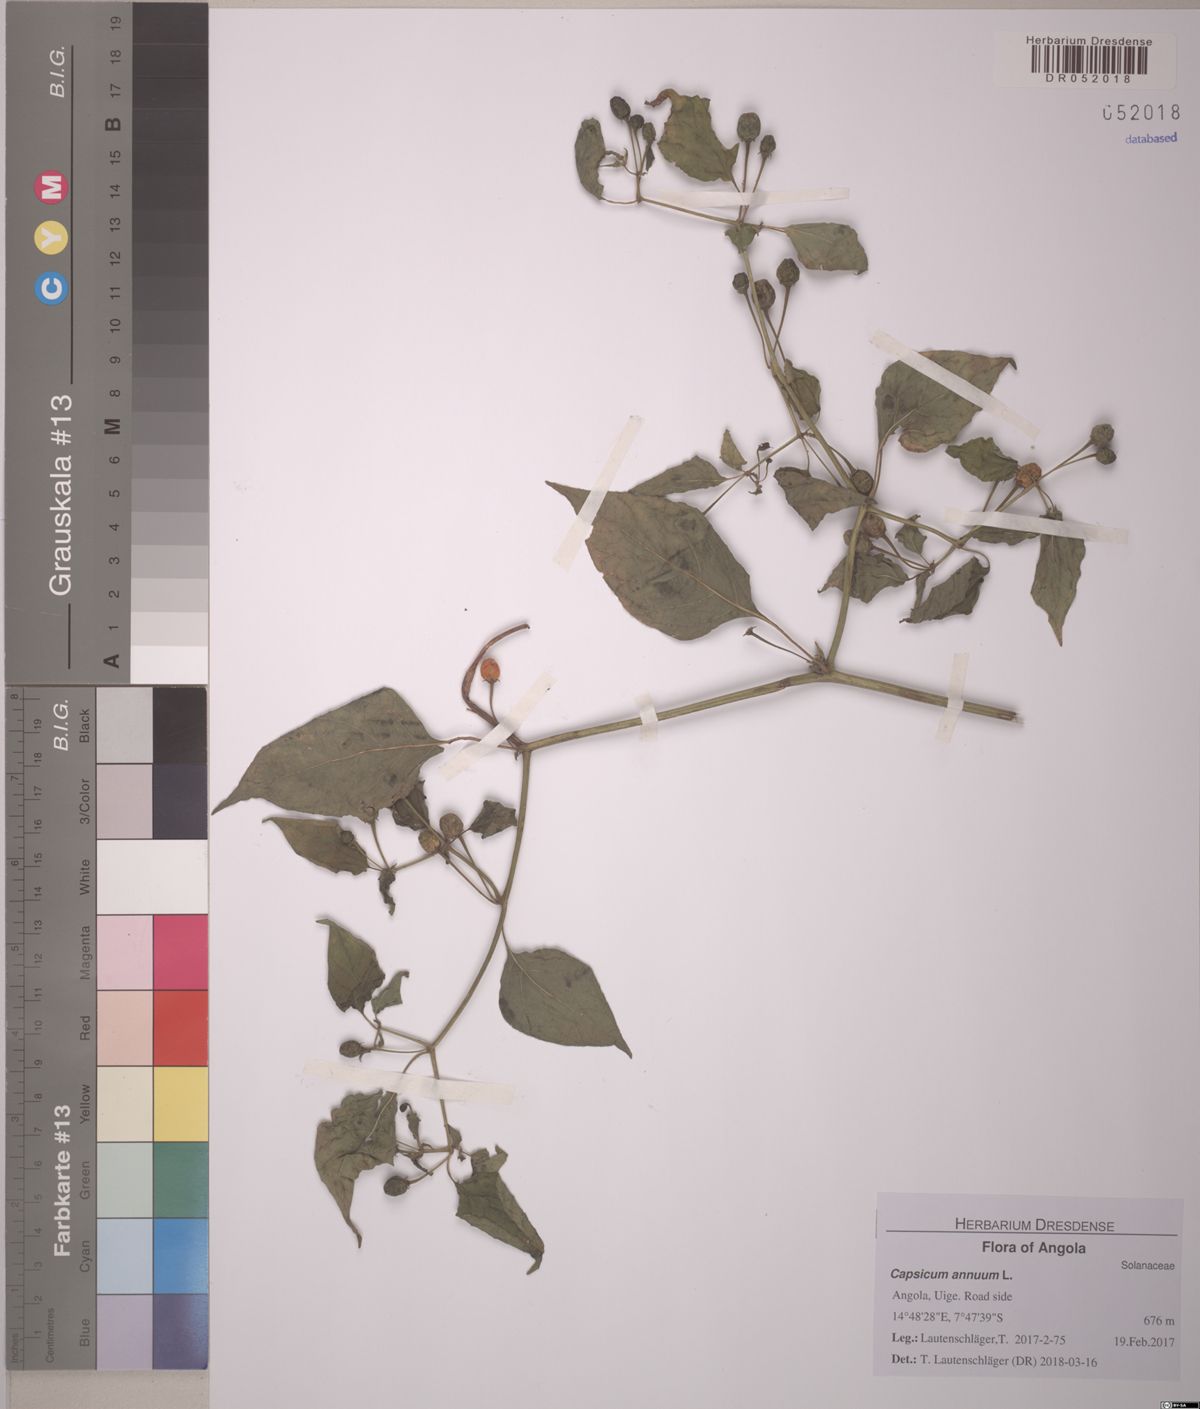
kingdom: Plantae
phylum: Tracheophyta
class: Magnoliopsida
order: Solanales
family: Solanaceae
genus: Capsicum
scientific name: Capsicum annuum
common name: Sweet pepper
